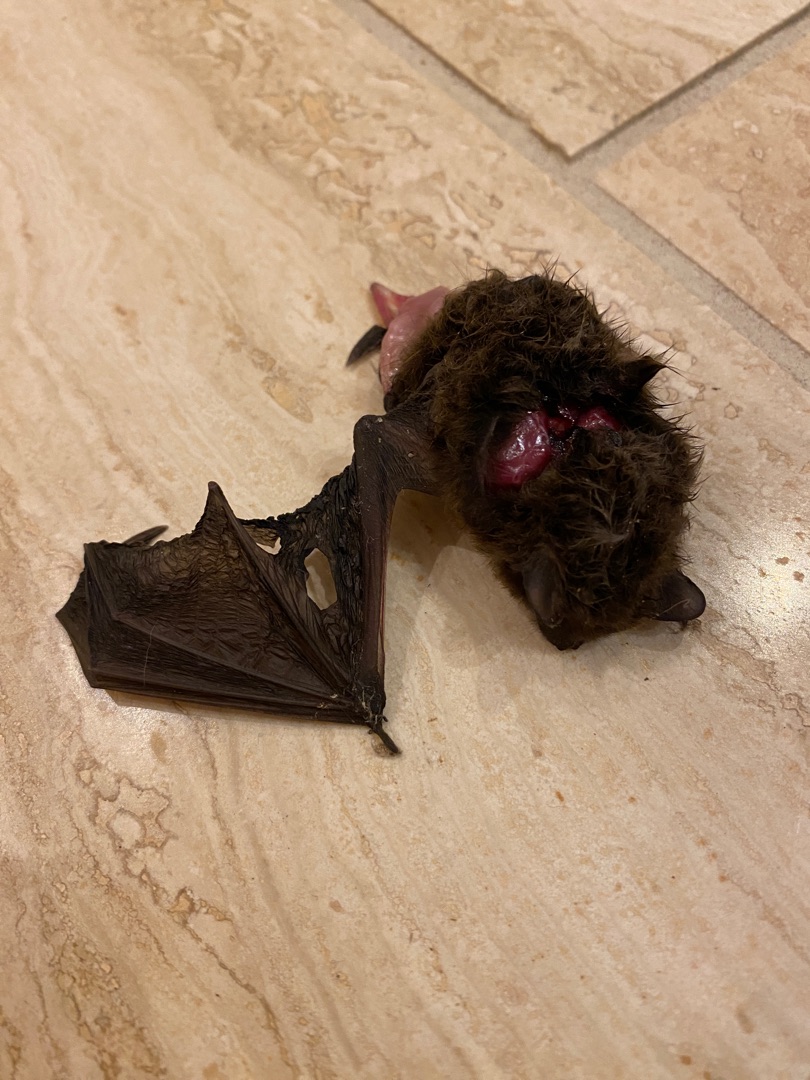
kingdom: Animalia
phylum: Chordata
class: Mammalia
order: Chiroptera
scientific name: Chiroptera
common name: Flagermus
